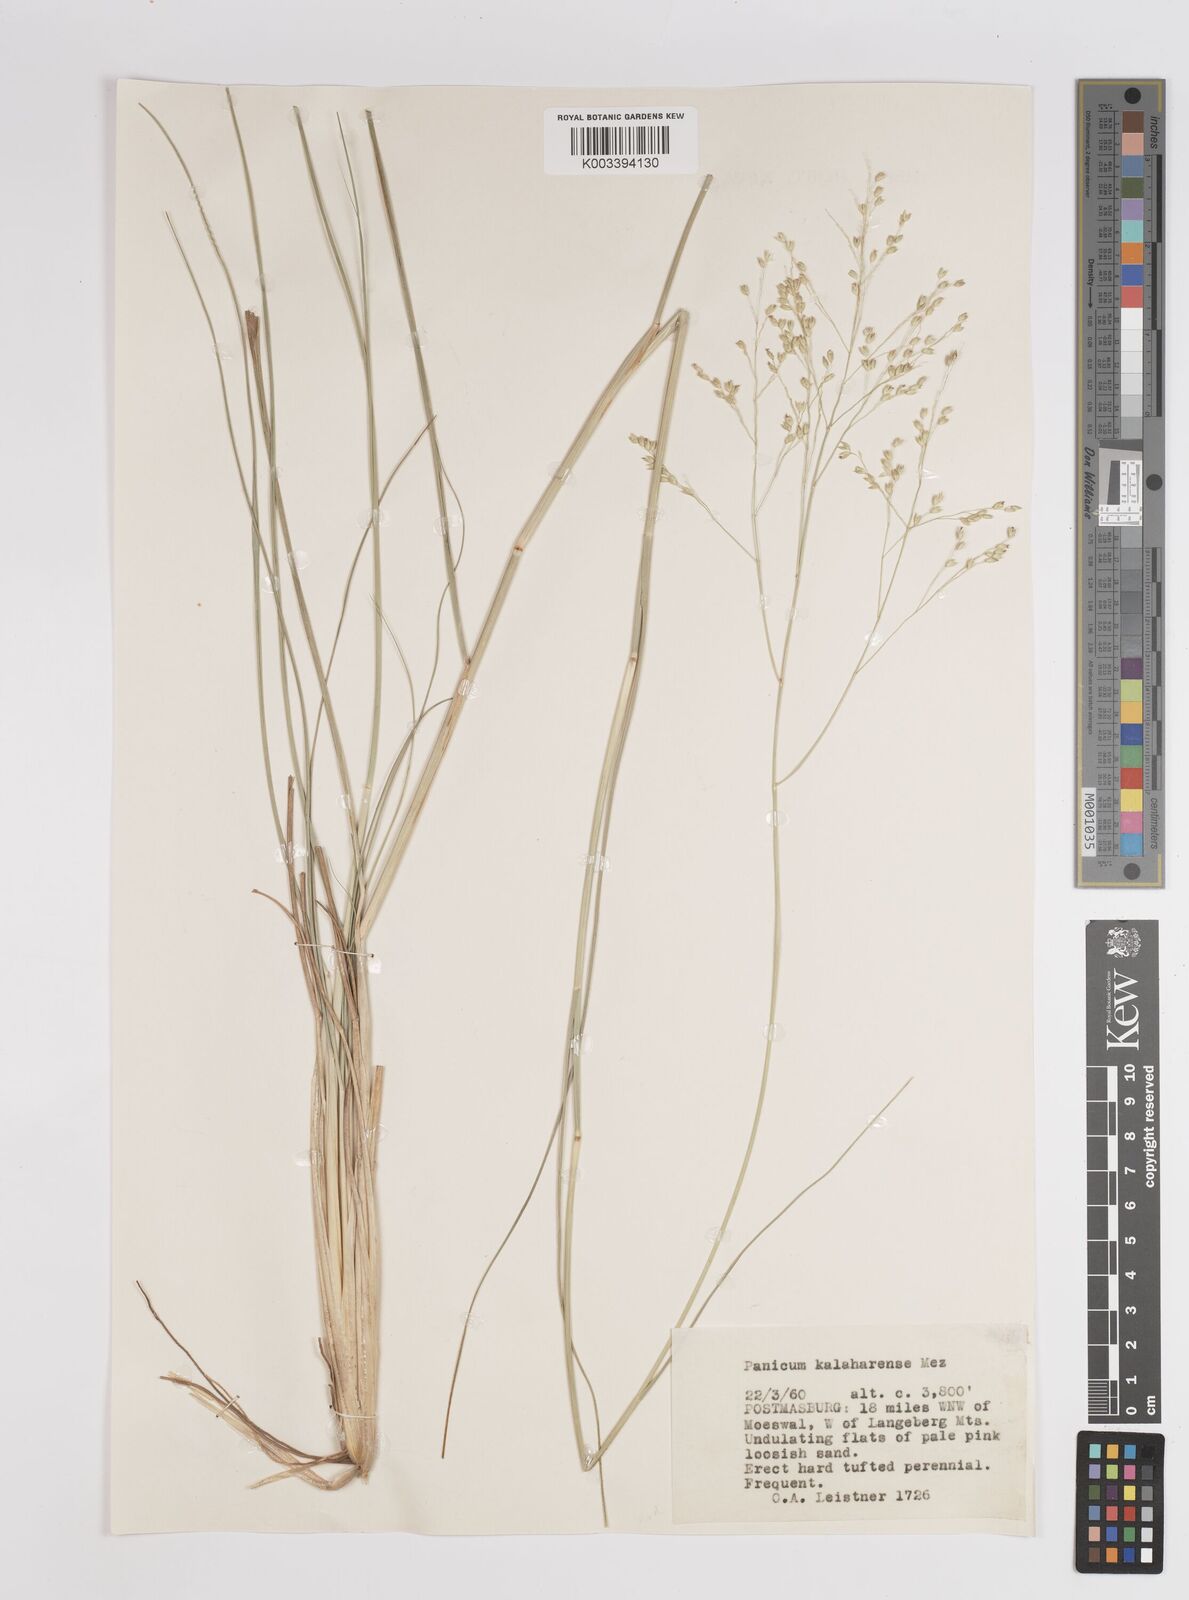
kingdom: Plantae
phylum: Tracheophyta
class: Liliopsida
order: Poales
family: Poaceae
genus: Panicum
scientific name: Panicum kalaharense
